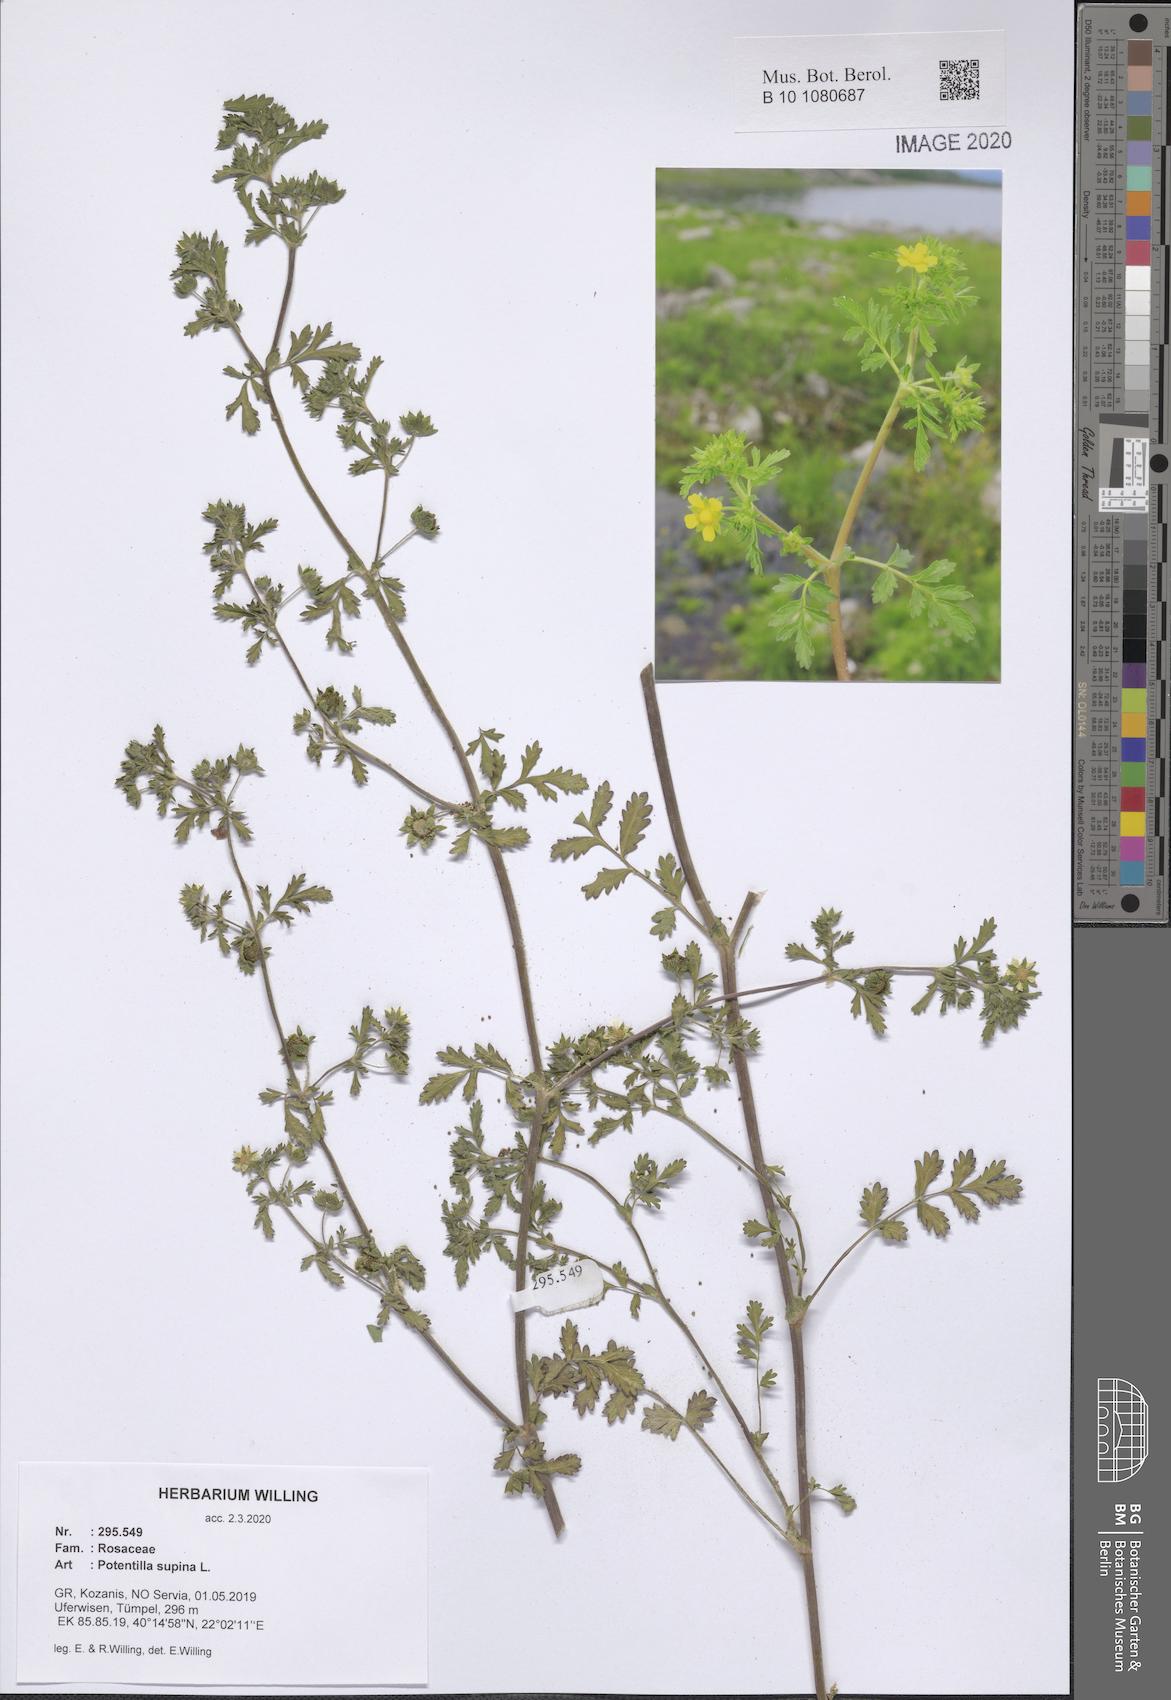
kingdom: Plantae
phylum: Tracheophyta
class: Magnoliopsida
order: Rosales
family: Rosaceae
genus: Potentilla
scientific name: Potentilla supina
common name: Prostrate cinquefoil
